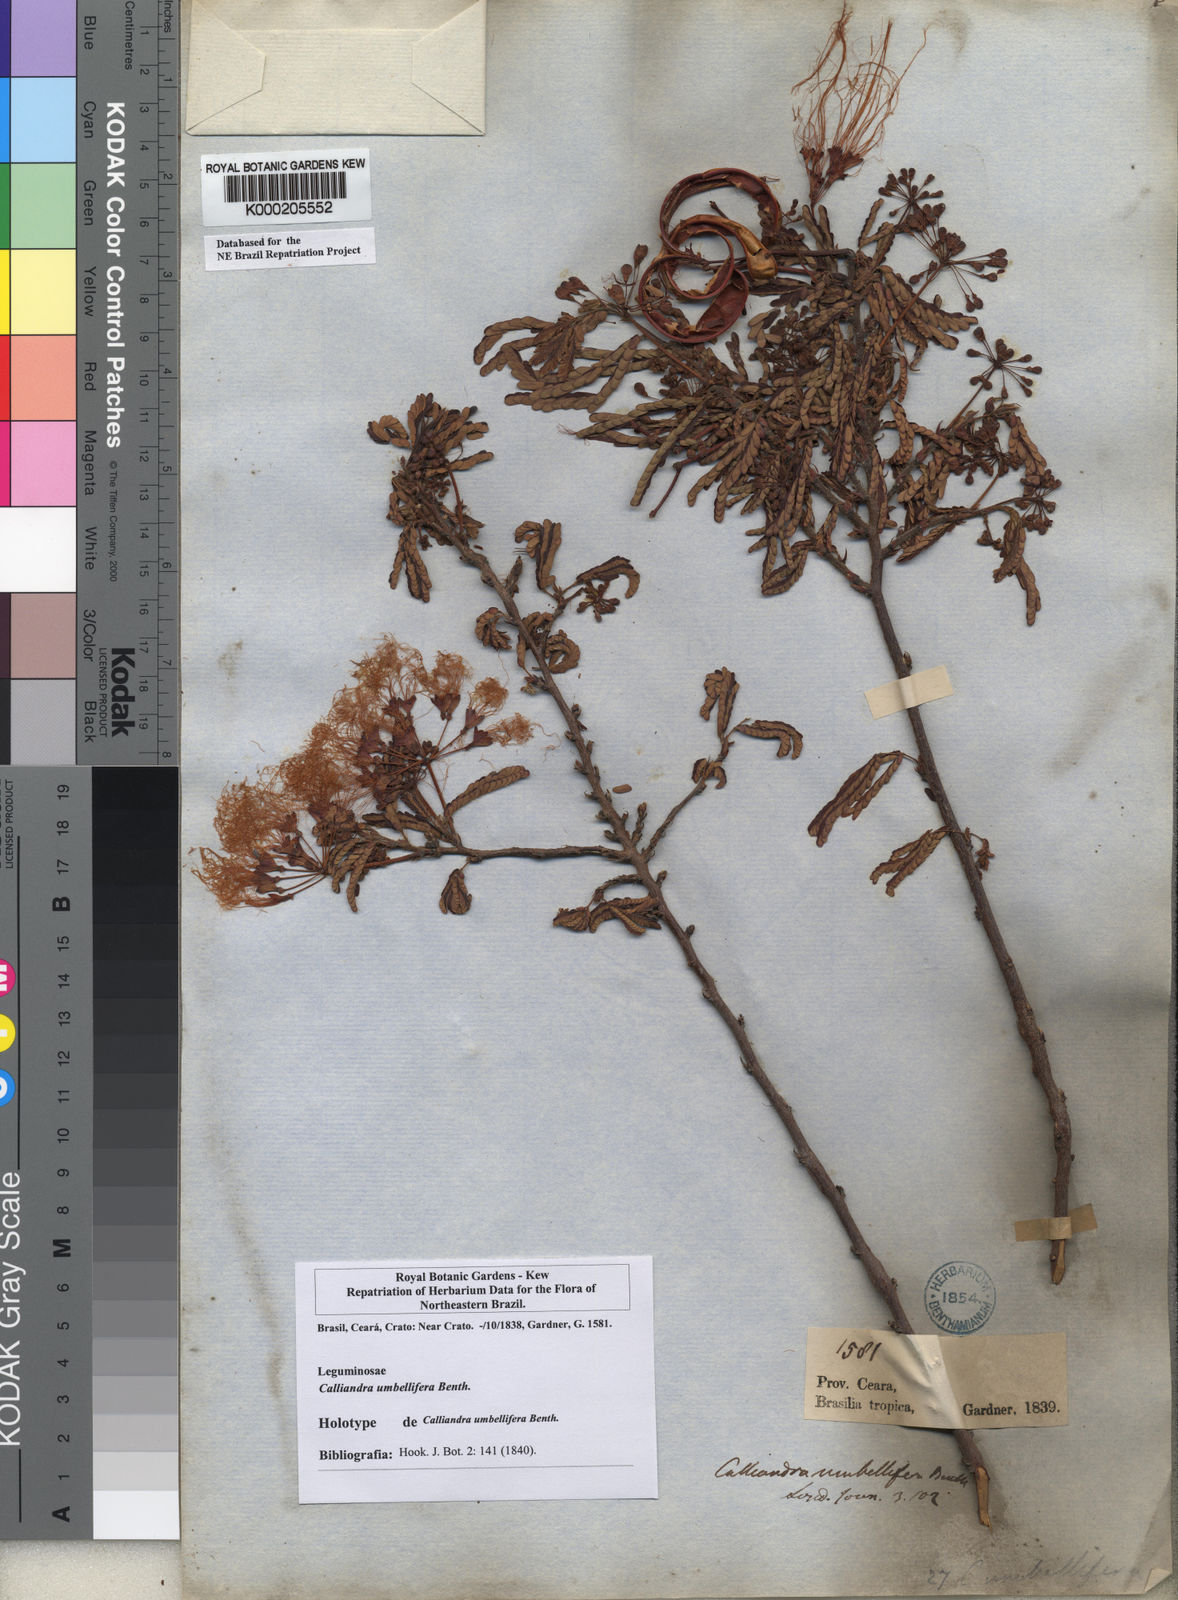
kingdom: Plantae
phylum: Tracheophyta
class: Magnoliopsida
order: Fabales
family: Fabaceae
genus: Calliandra
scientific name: Calliandra umbellifera
